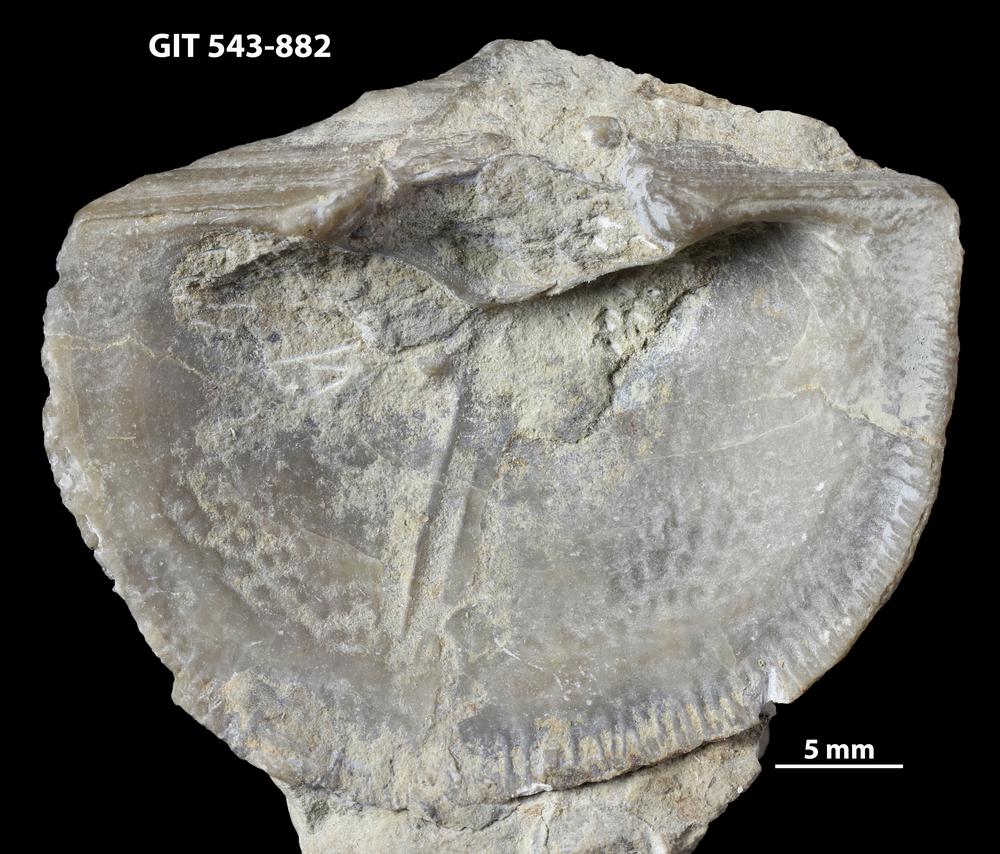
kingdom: Animalia
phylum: Brachiopoda
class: Rhynchonellata
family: Clitambonitidae
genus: Vellamo
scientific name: Vellamo Orthis verneuili
